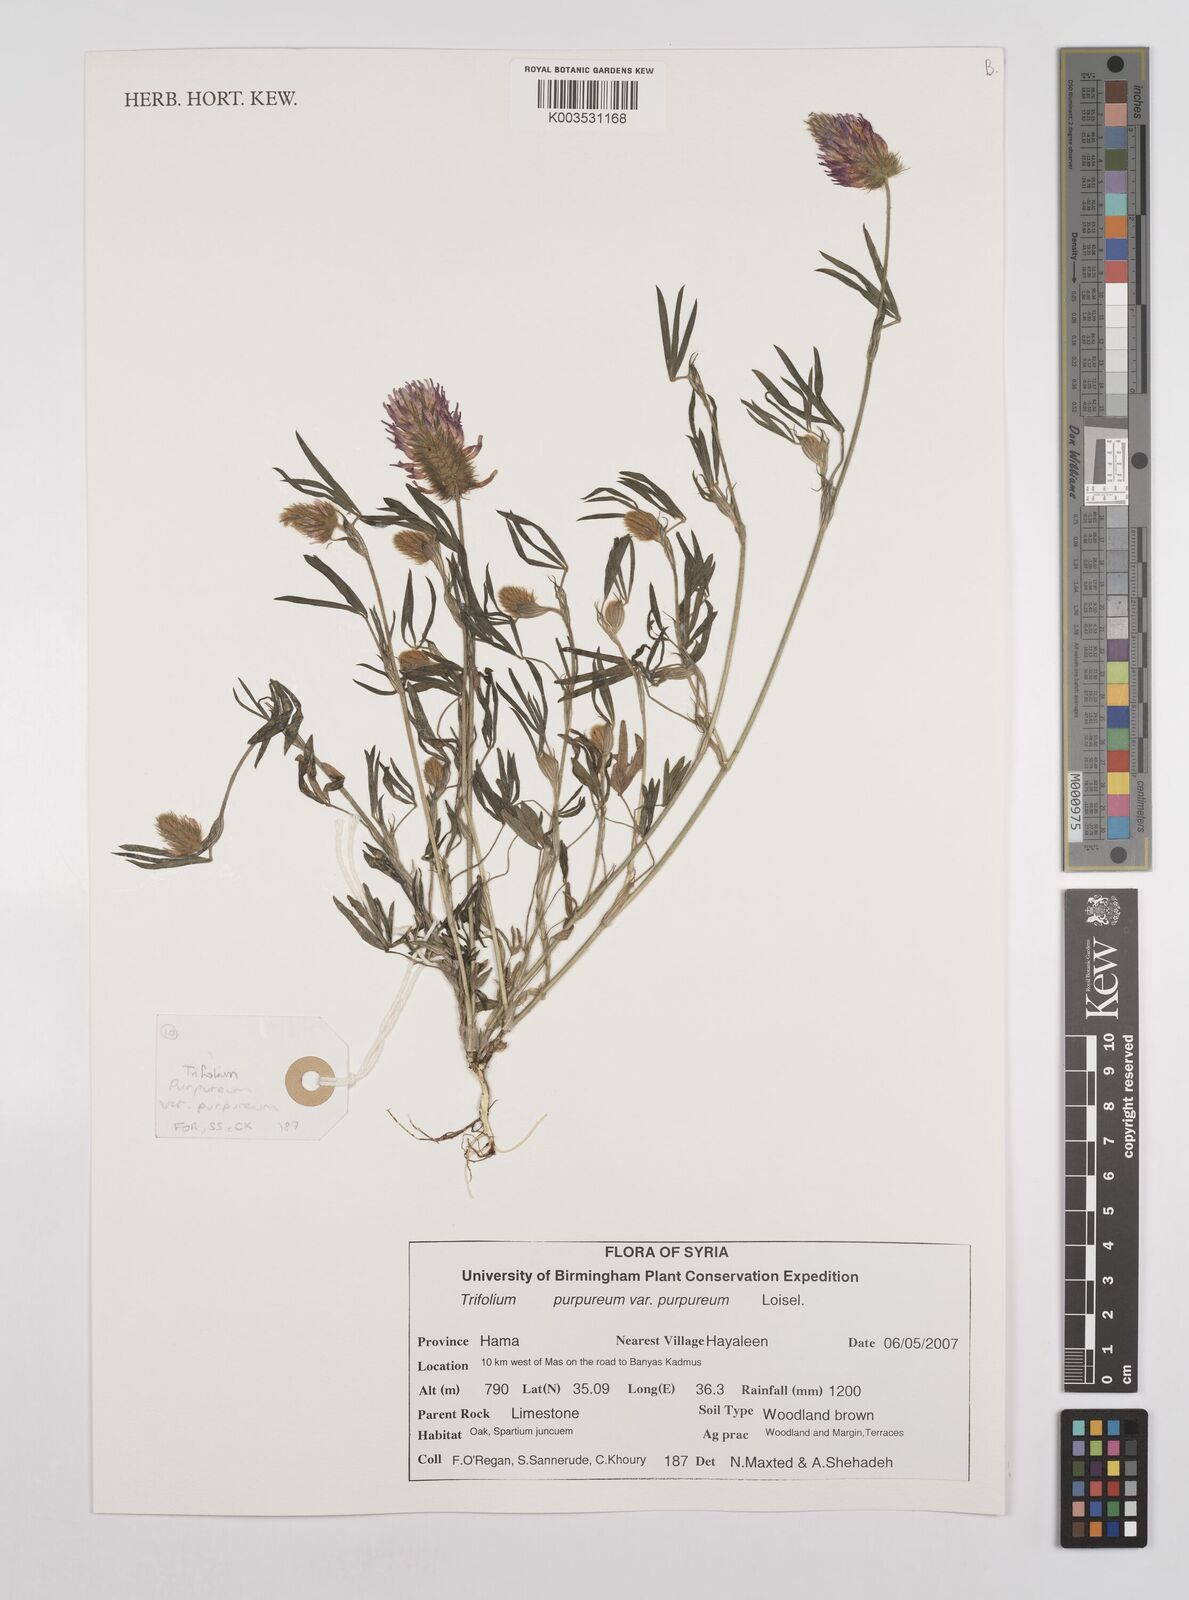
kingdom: Plantae
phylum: Tracheophyta
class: Magnoliopsida
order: Fabales
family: Fabaceae
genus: Trifolium
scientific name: Trifolium purpureum
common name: Purple clover
